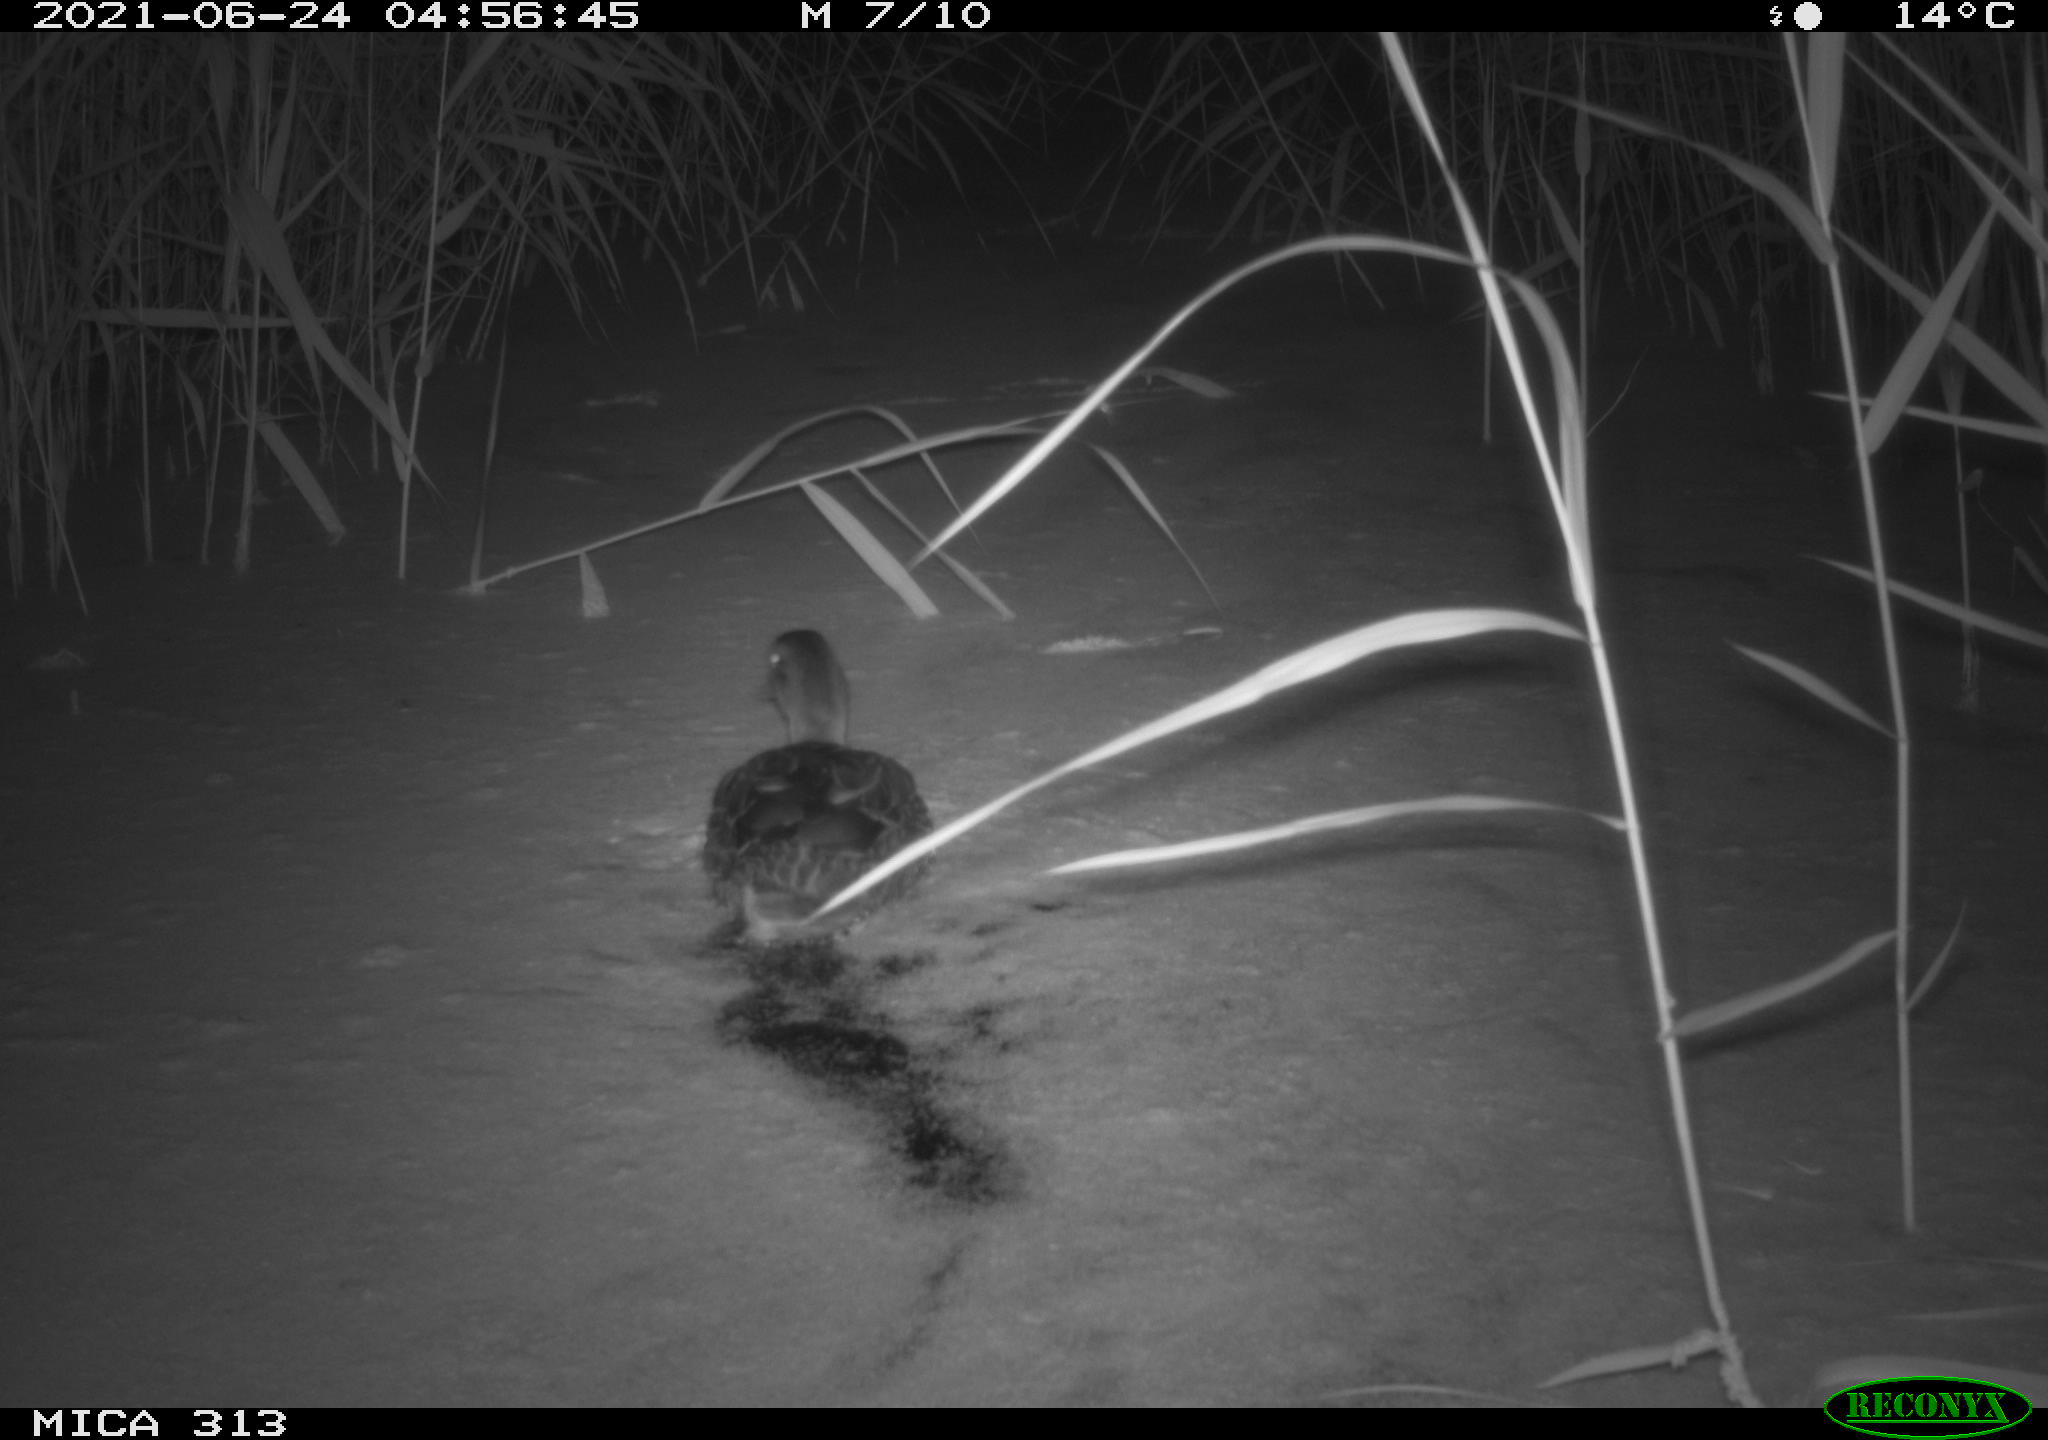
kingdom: Animalia
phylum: Chordata
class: Aves
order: Anseriformes
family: Anatidae
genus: Anas
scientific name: Anas
